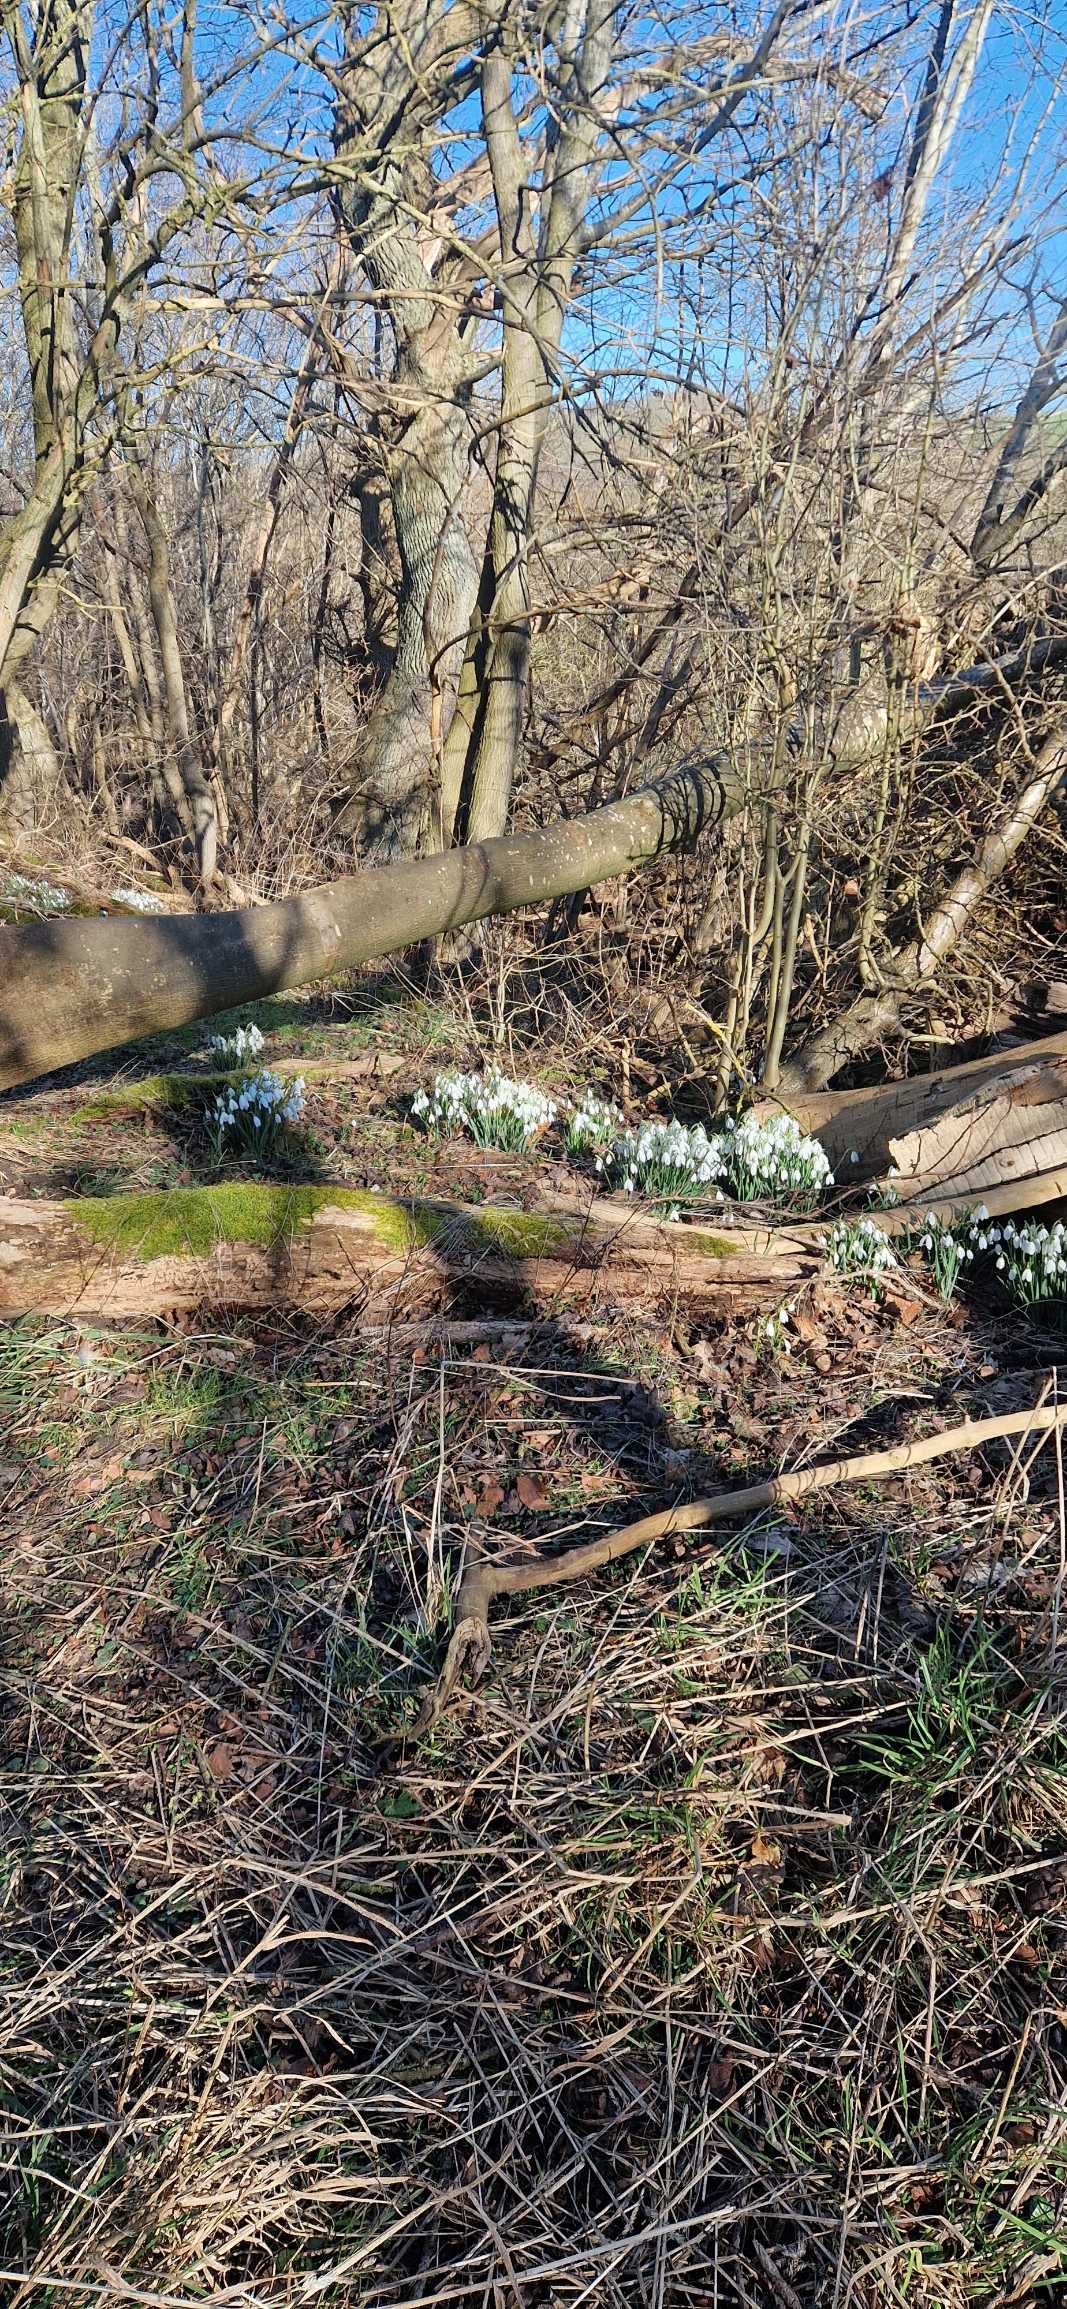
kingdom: Plantae
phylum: Tracheophyta
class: Liliopsida
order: Asparagales
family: Amaryllidaceae
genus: Galanthus
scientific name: Galanthus nivalis
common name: Vintergæk
